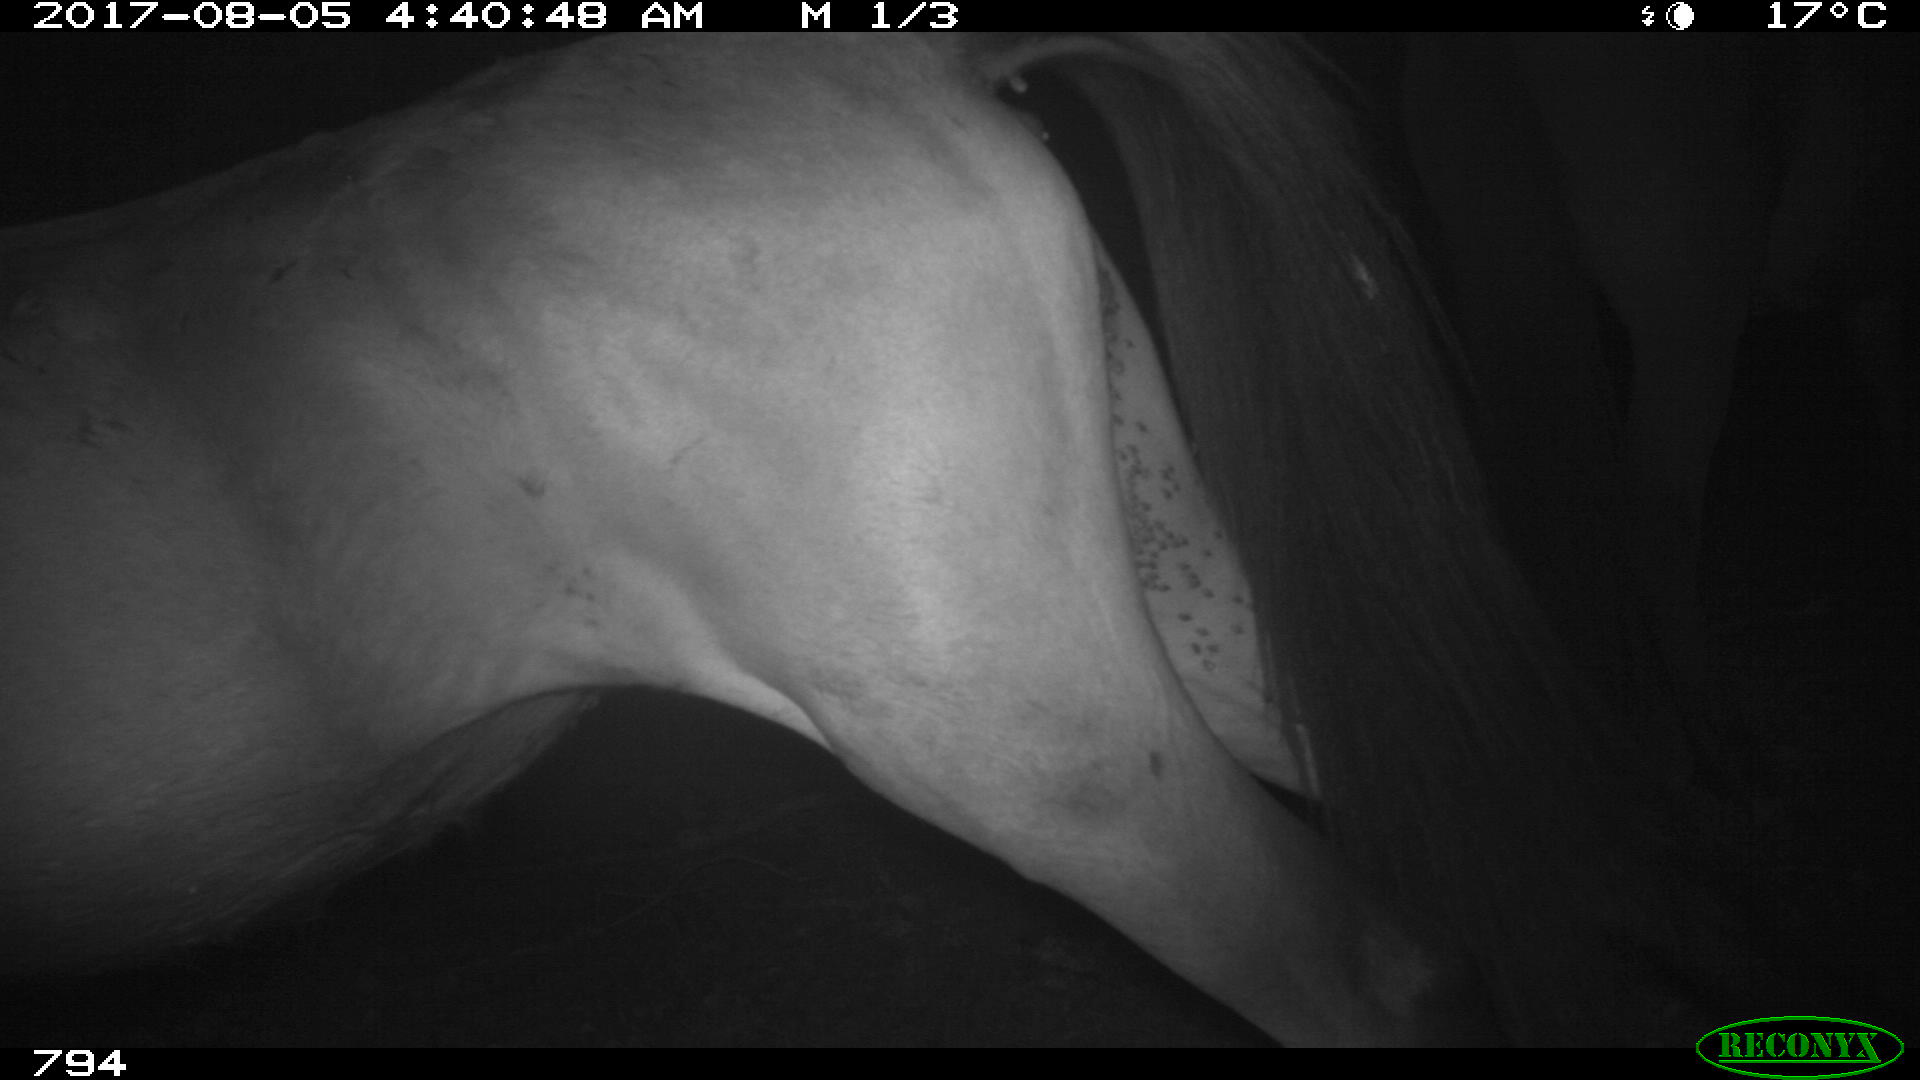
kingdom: Animalia
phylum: Chordata
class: Mammalia
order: Perissodactyla
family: Equidae
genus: Equus
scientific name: Equus caballus
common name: Horse
